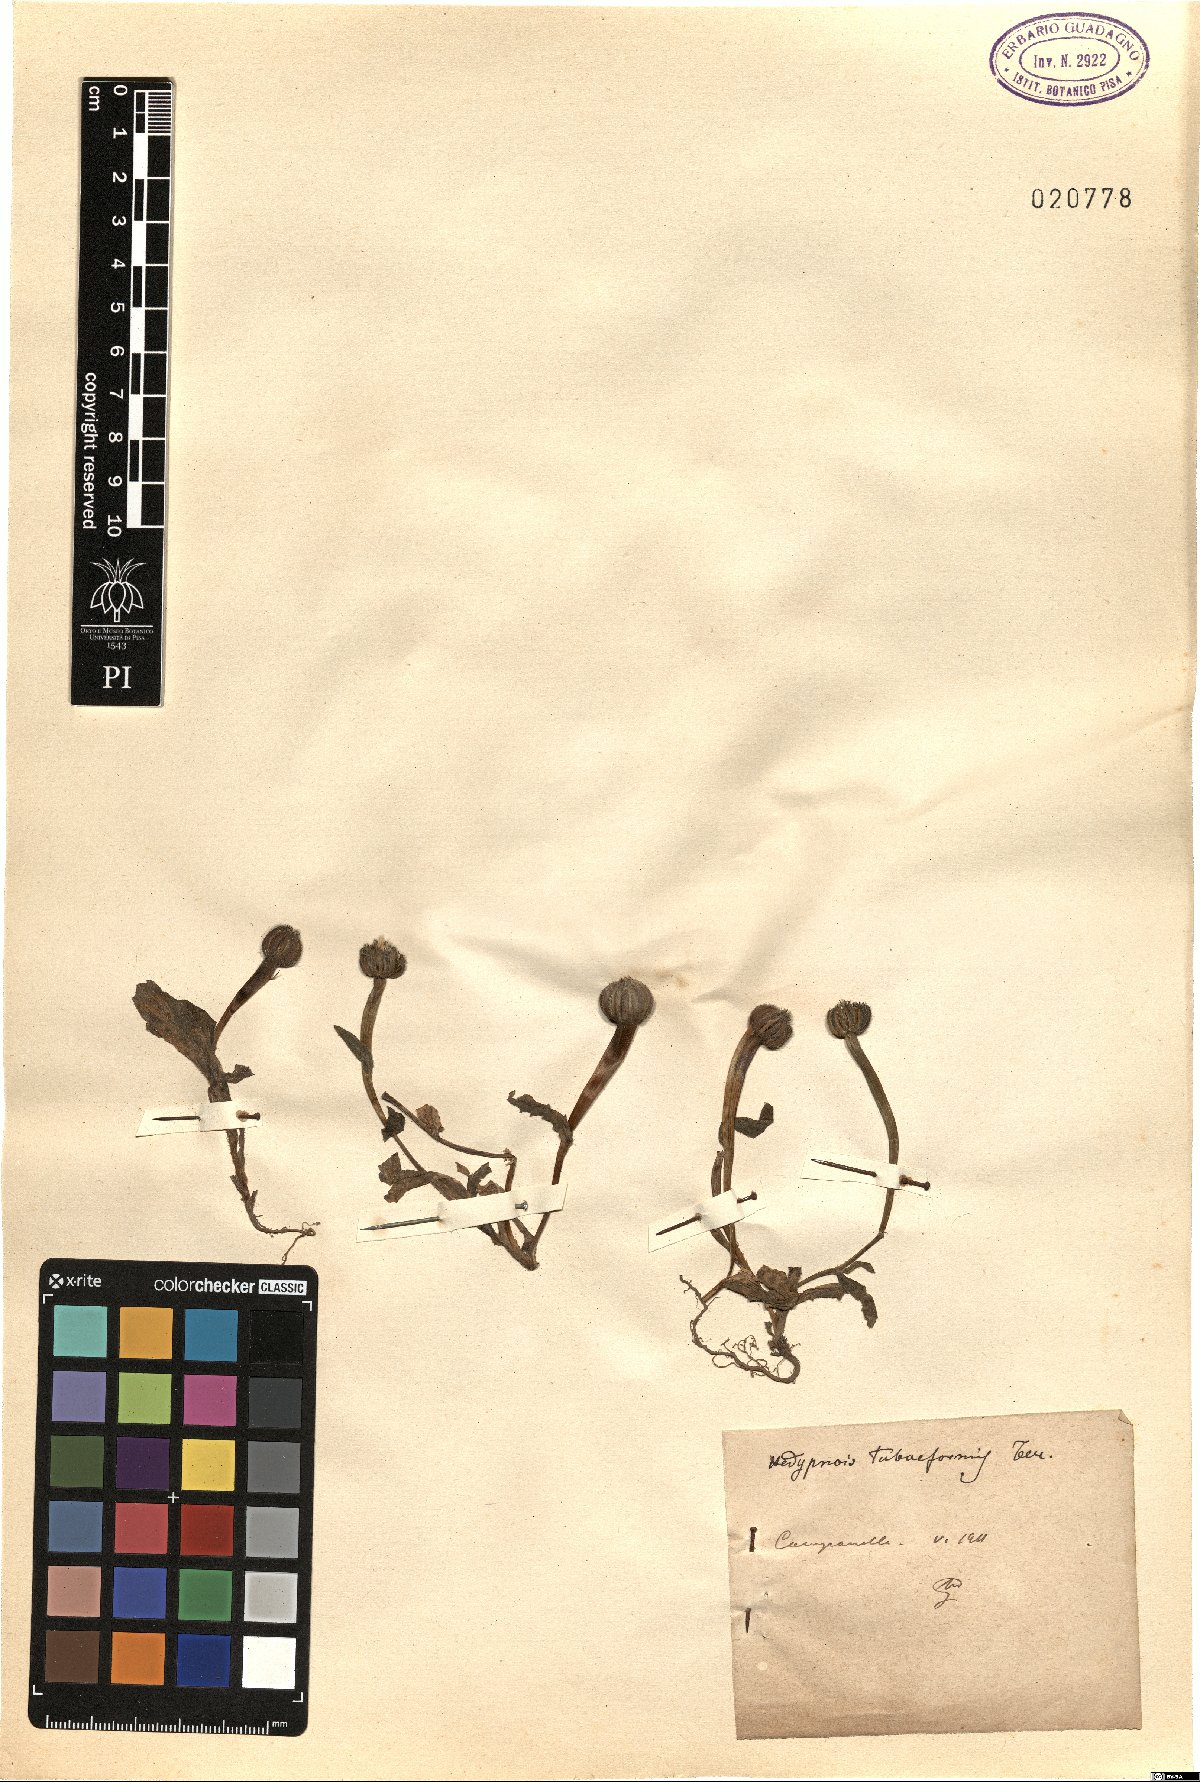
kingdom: Plantae
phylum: Tracheophyta
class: Magnoliopsida
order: Asterales
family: Asteraceae
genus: Hedypnois
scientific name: Hedypnois rhagadioloides
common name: Cretan weed
